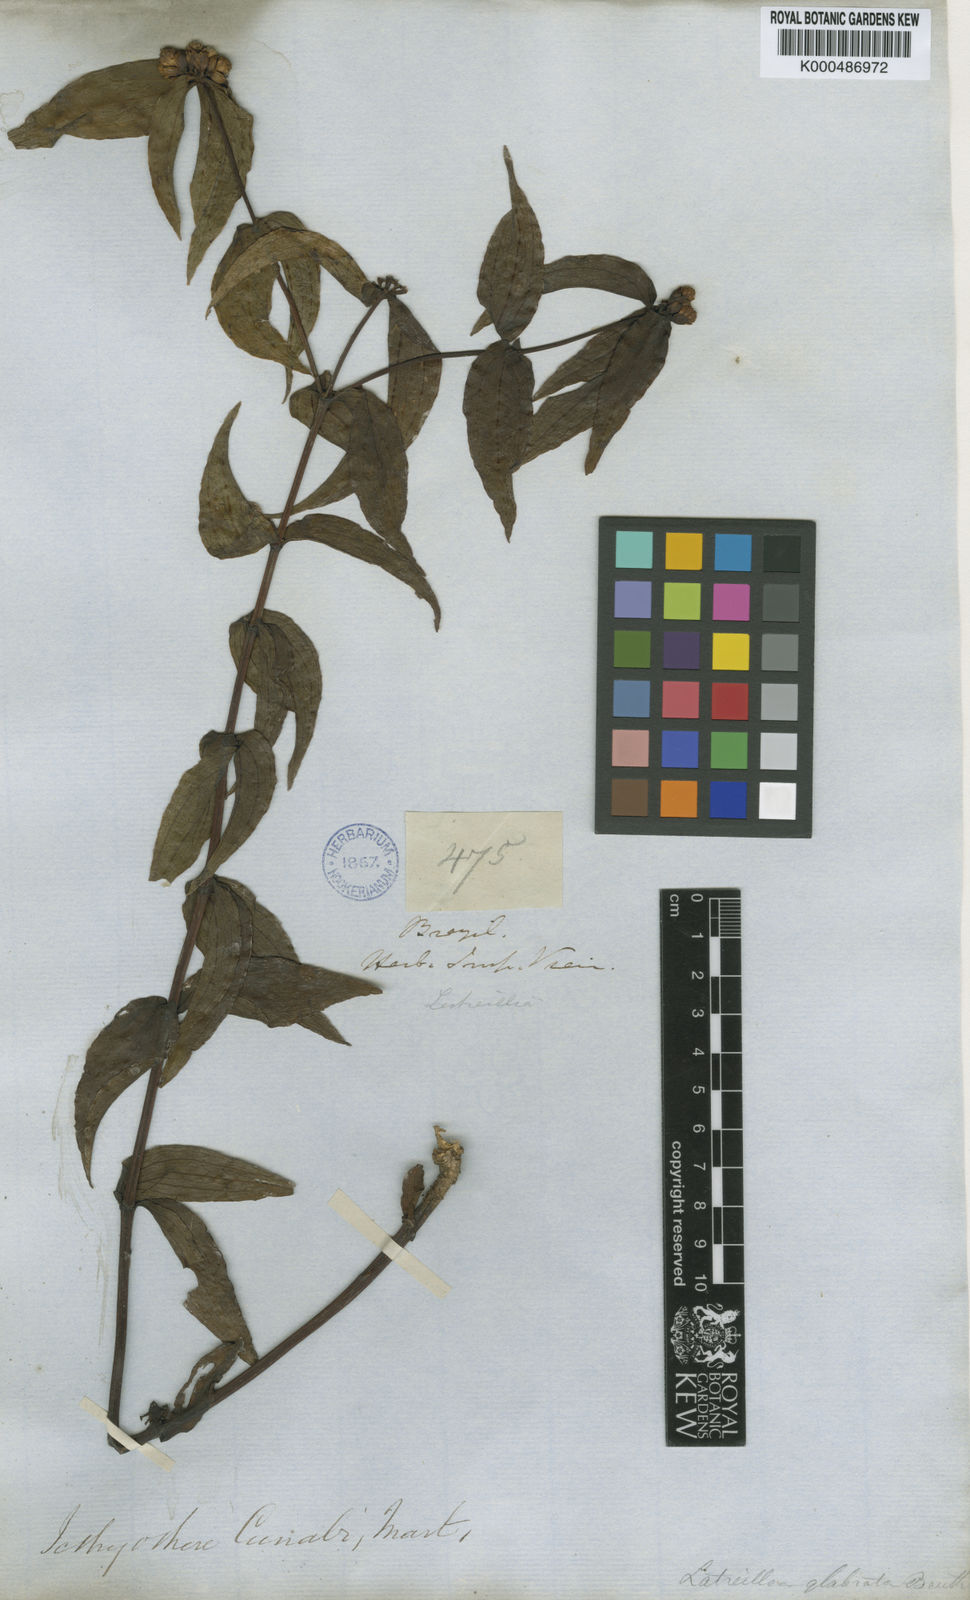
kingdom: Plantae
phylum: Tracheophyta
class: Magnoliopsida
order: Asterales
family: Asteraceae
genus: Ichthyothere
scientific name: Ichthyothere terminalis
